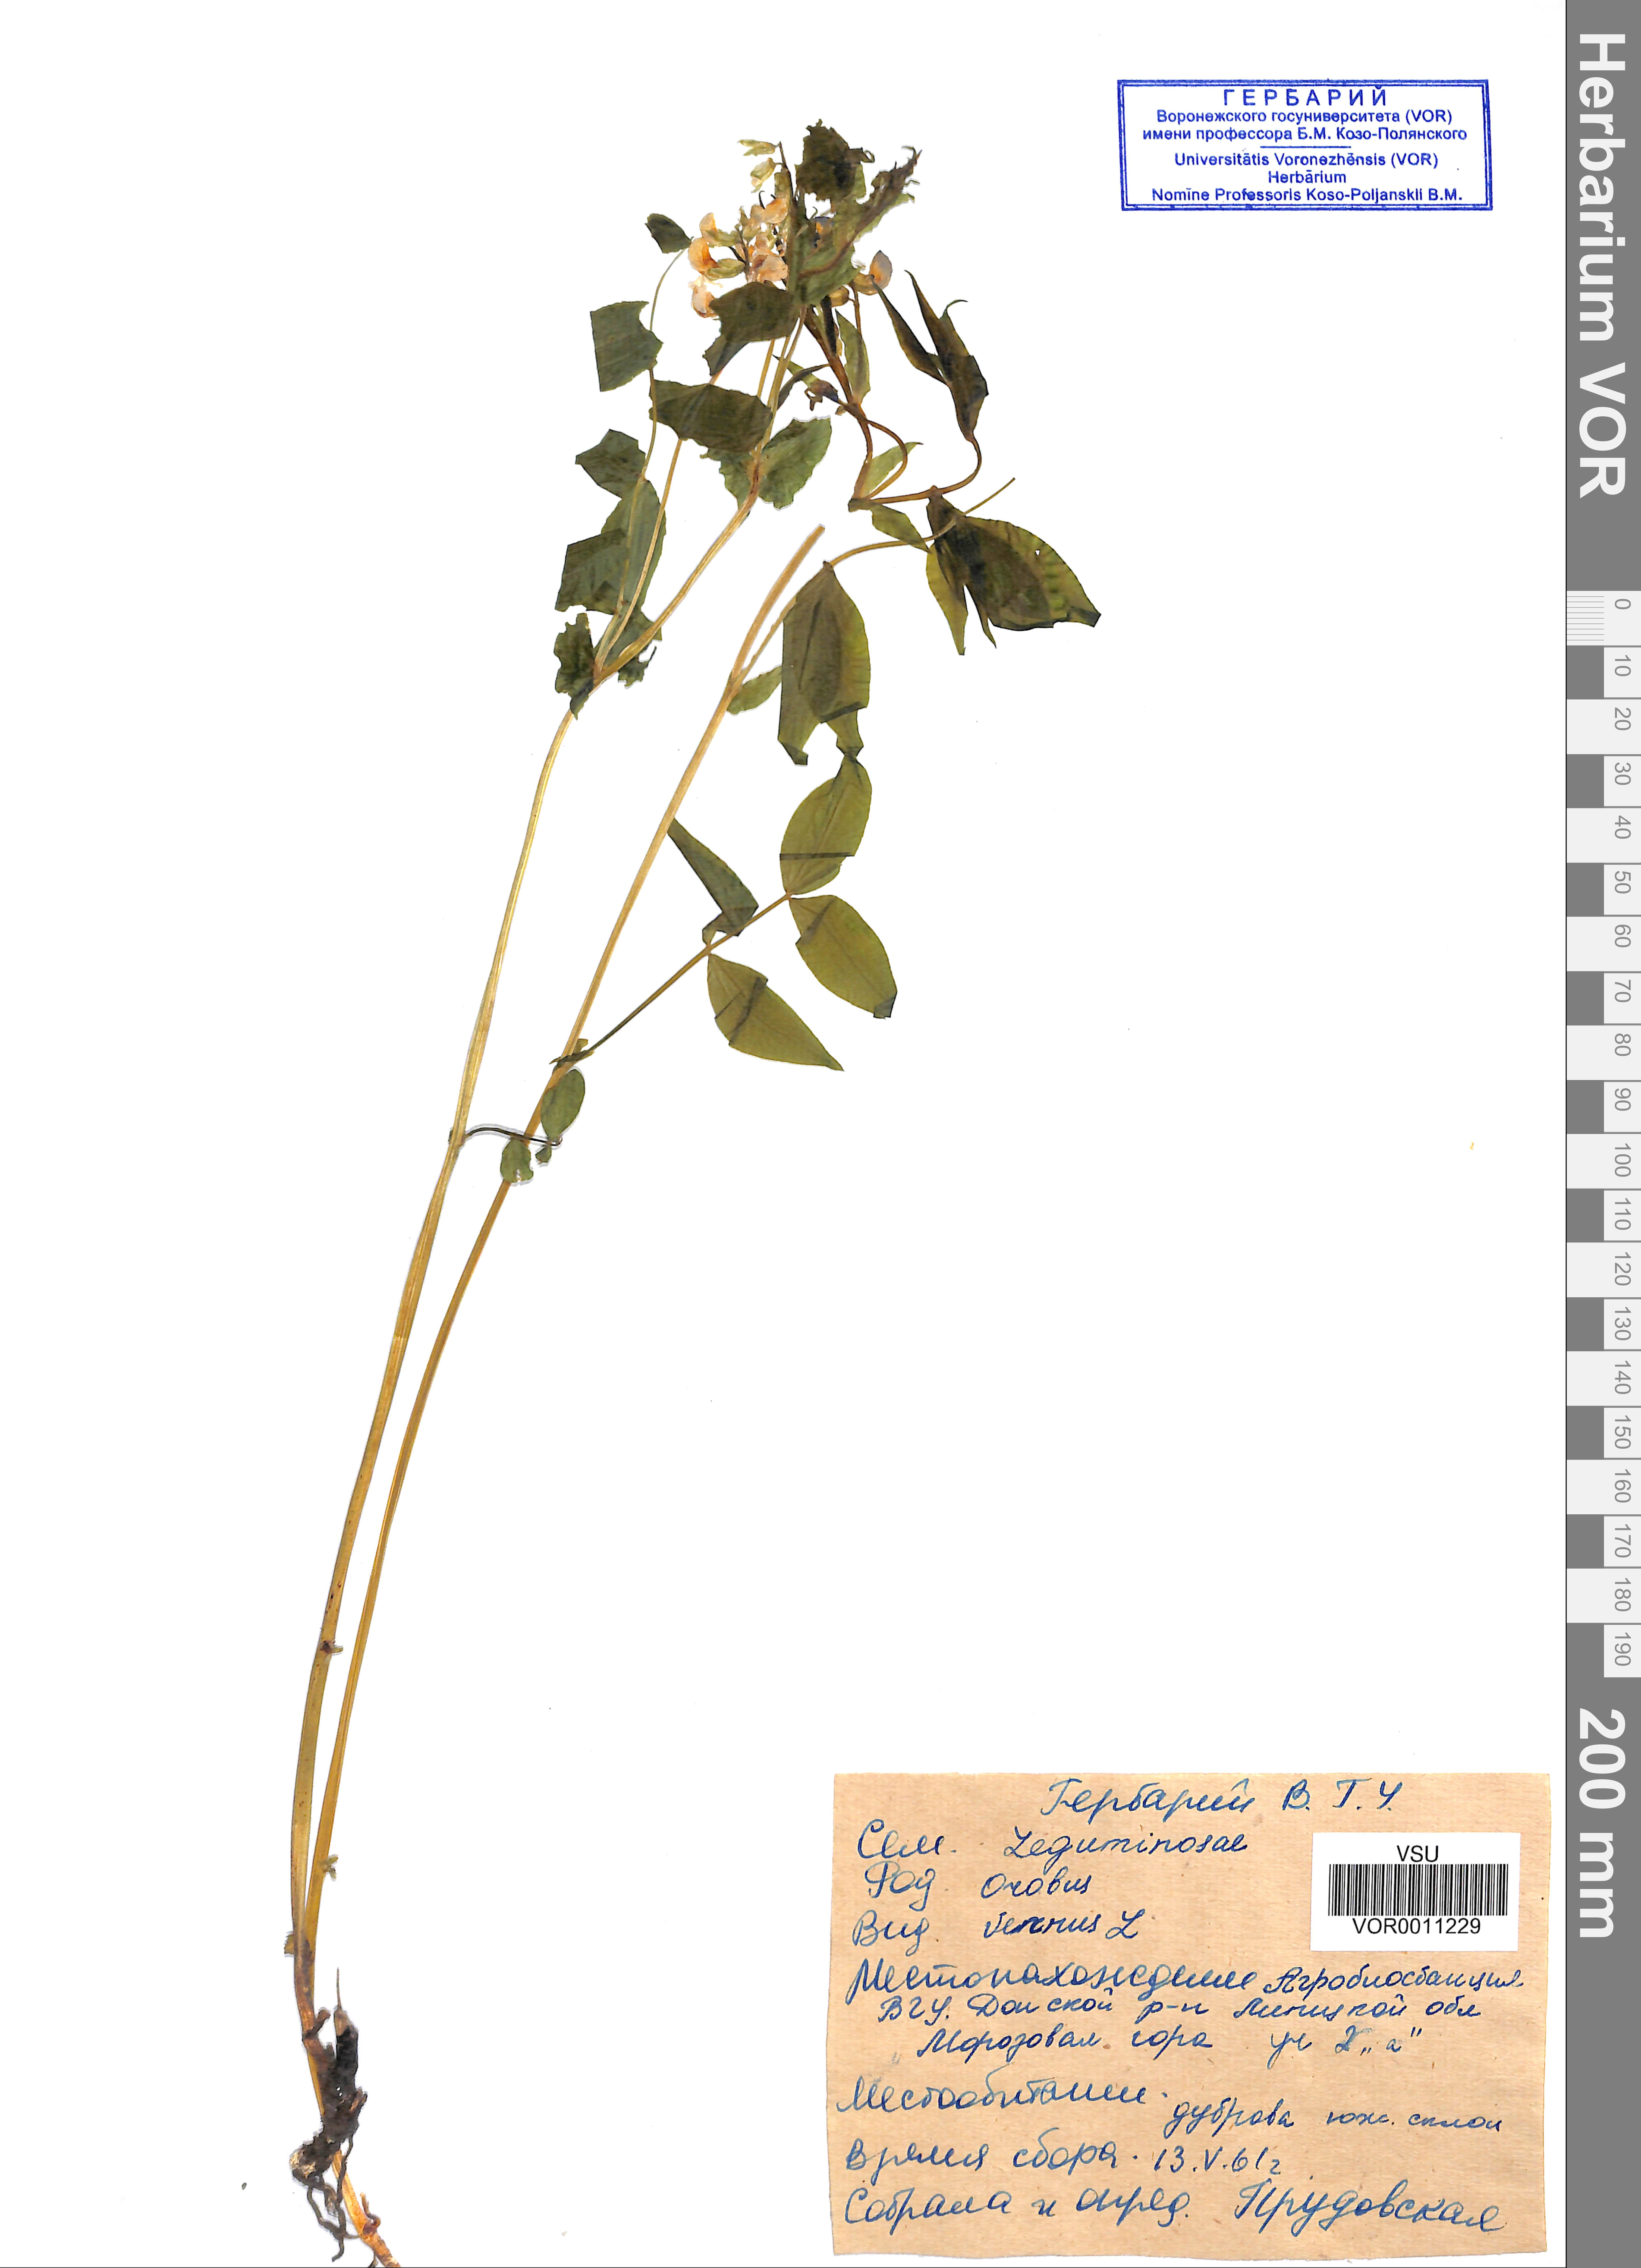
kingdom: Plantae
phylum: Tracheophyta
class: Magnoliopsida
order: Fabales
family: Fabaceae
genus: Lathyrus
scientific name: Lathyrus vernus
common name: Spring pea
